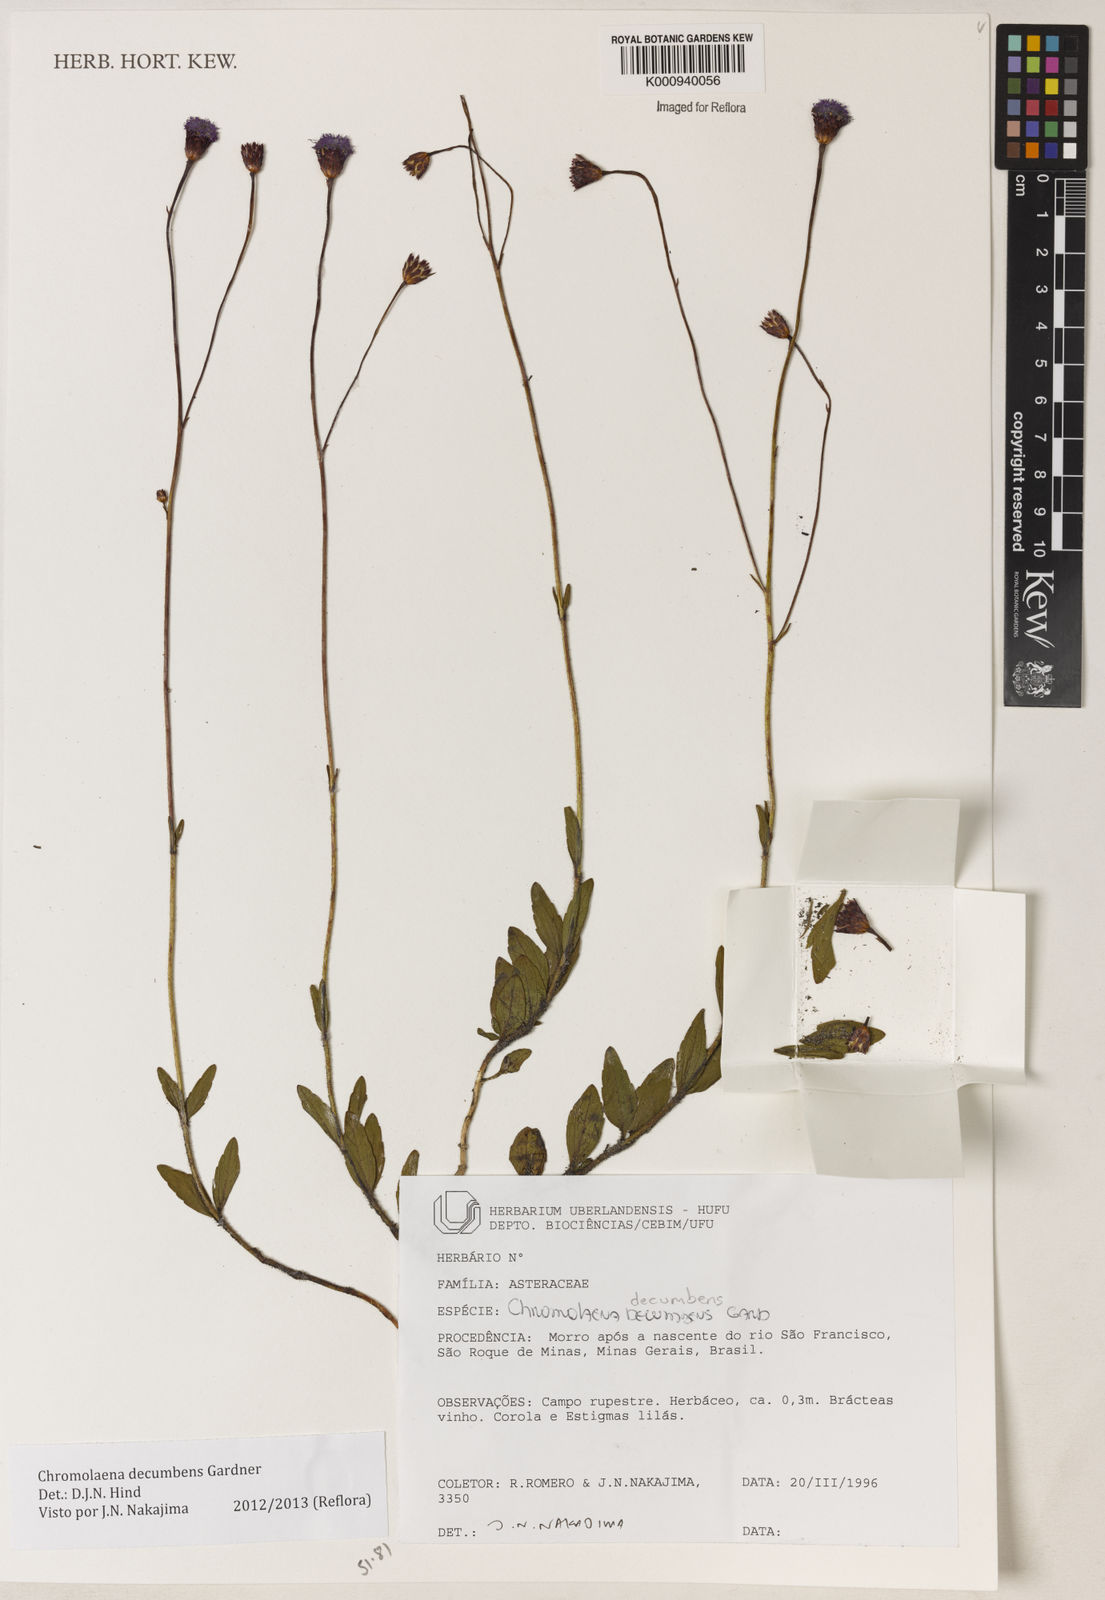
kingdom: Plantae
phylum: Tracheophyta
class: Magnoliopsida
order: Asterales
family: Asteraceae
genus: Praxelis
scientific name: Praxelis decumbens
